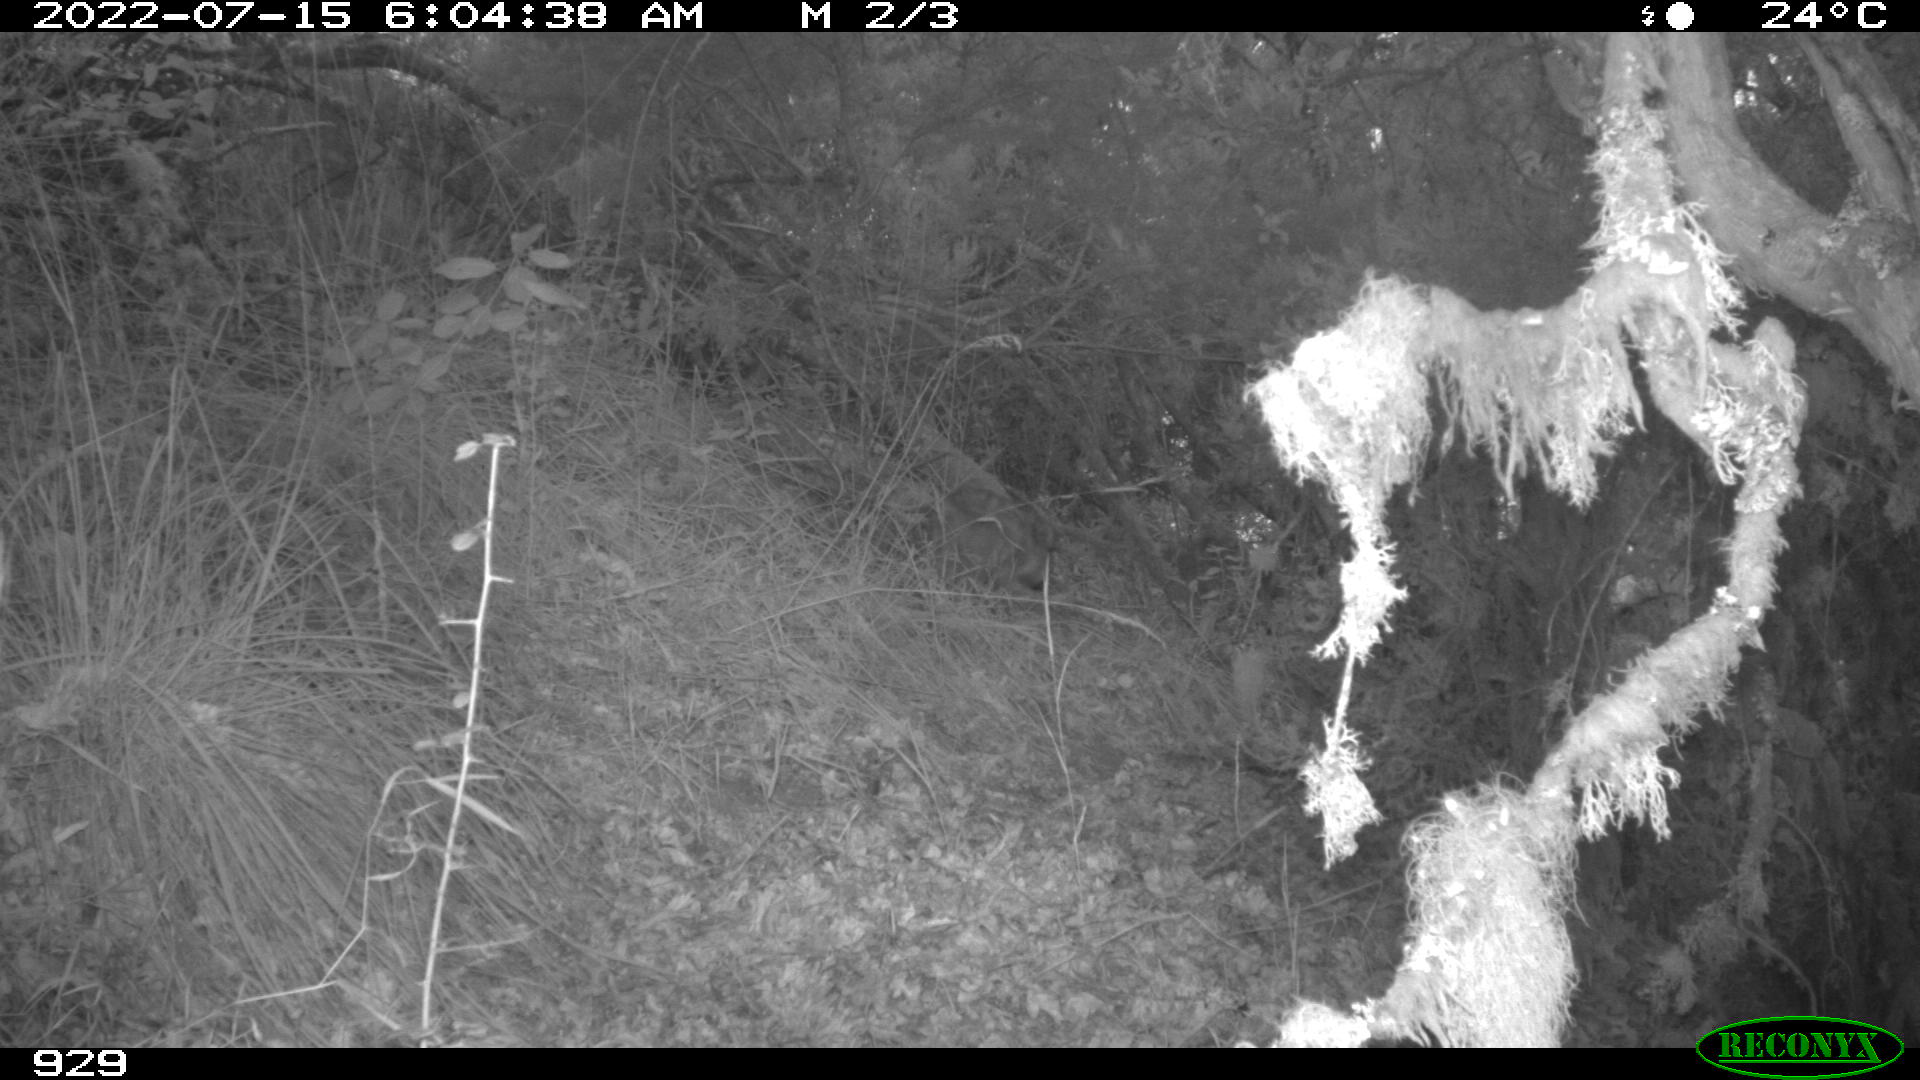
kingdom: Animalia
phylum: Chordata
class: Mammalia
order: Artiodactyla
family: Suidae
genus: Sus
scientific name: Sus scrofa
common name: Wild boar
